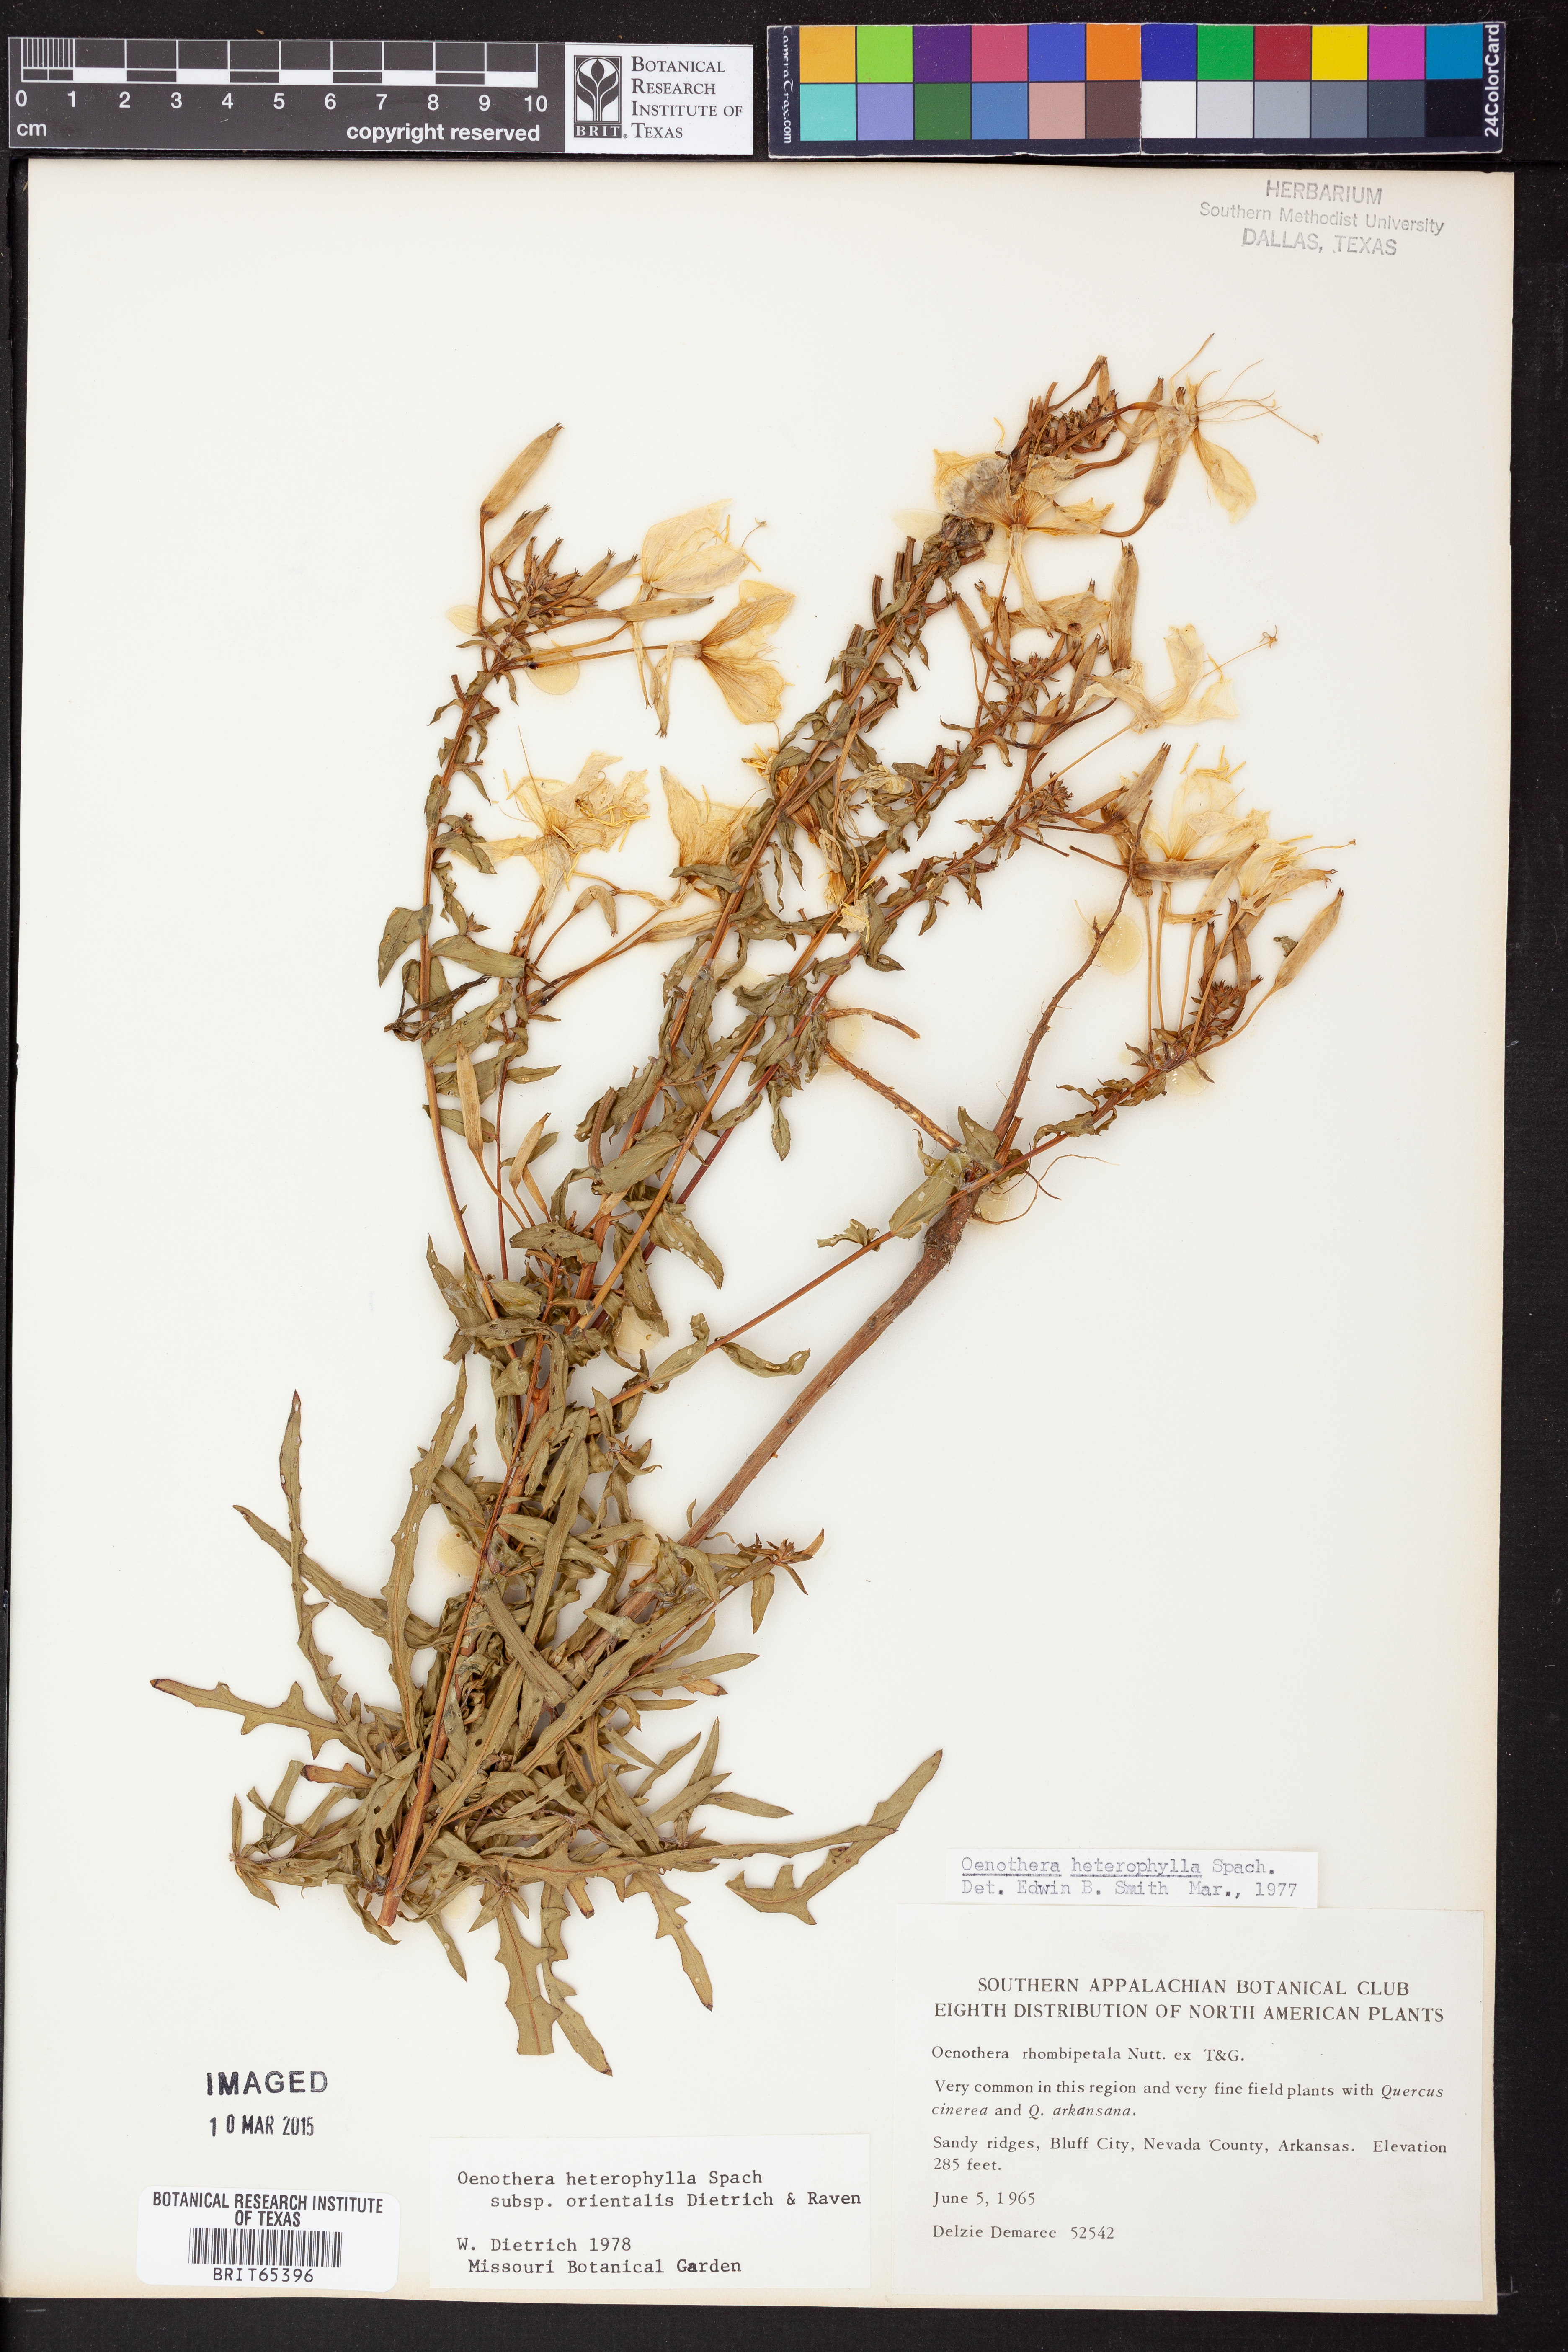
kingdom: Plantae
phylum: Tracheophyta
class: Magnoliopsida
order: Myrtales
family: Onagraceae
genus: Oenothera
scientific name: Oenothera heterophylla
